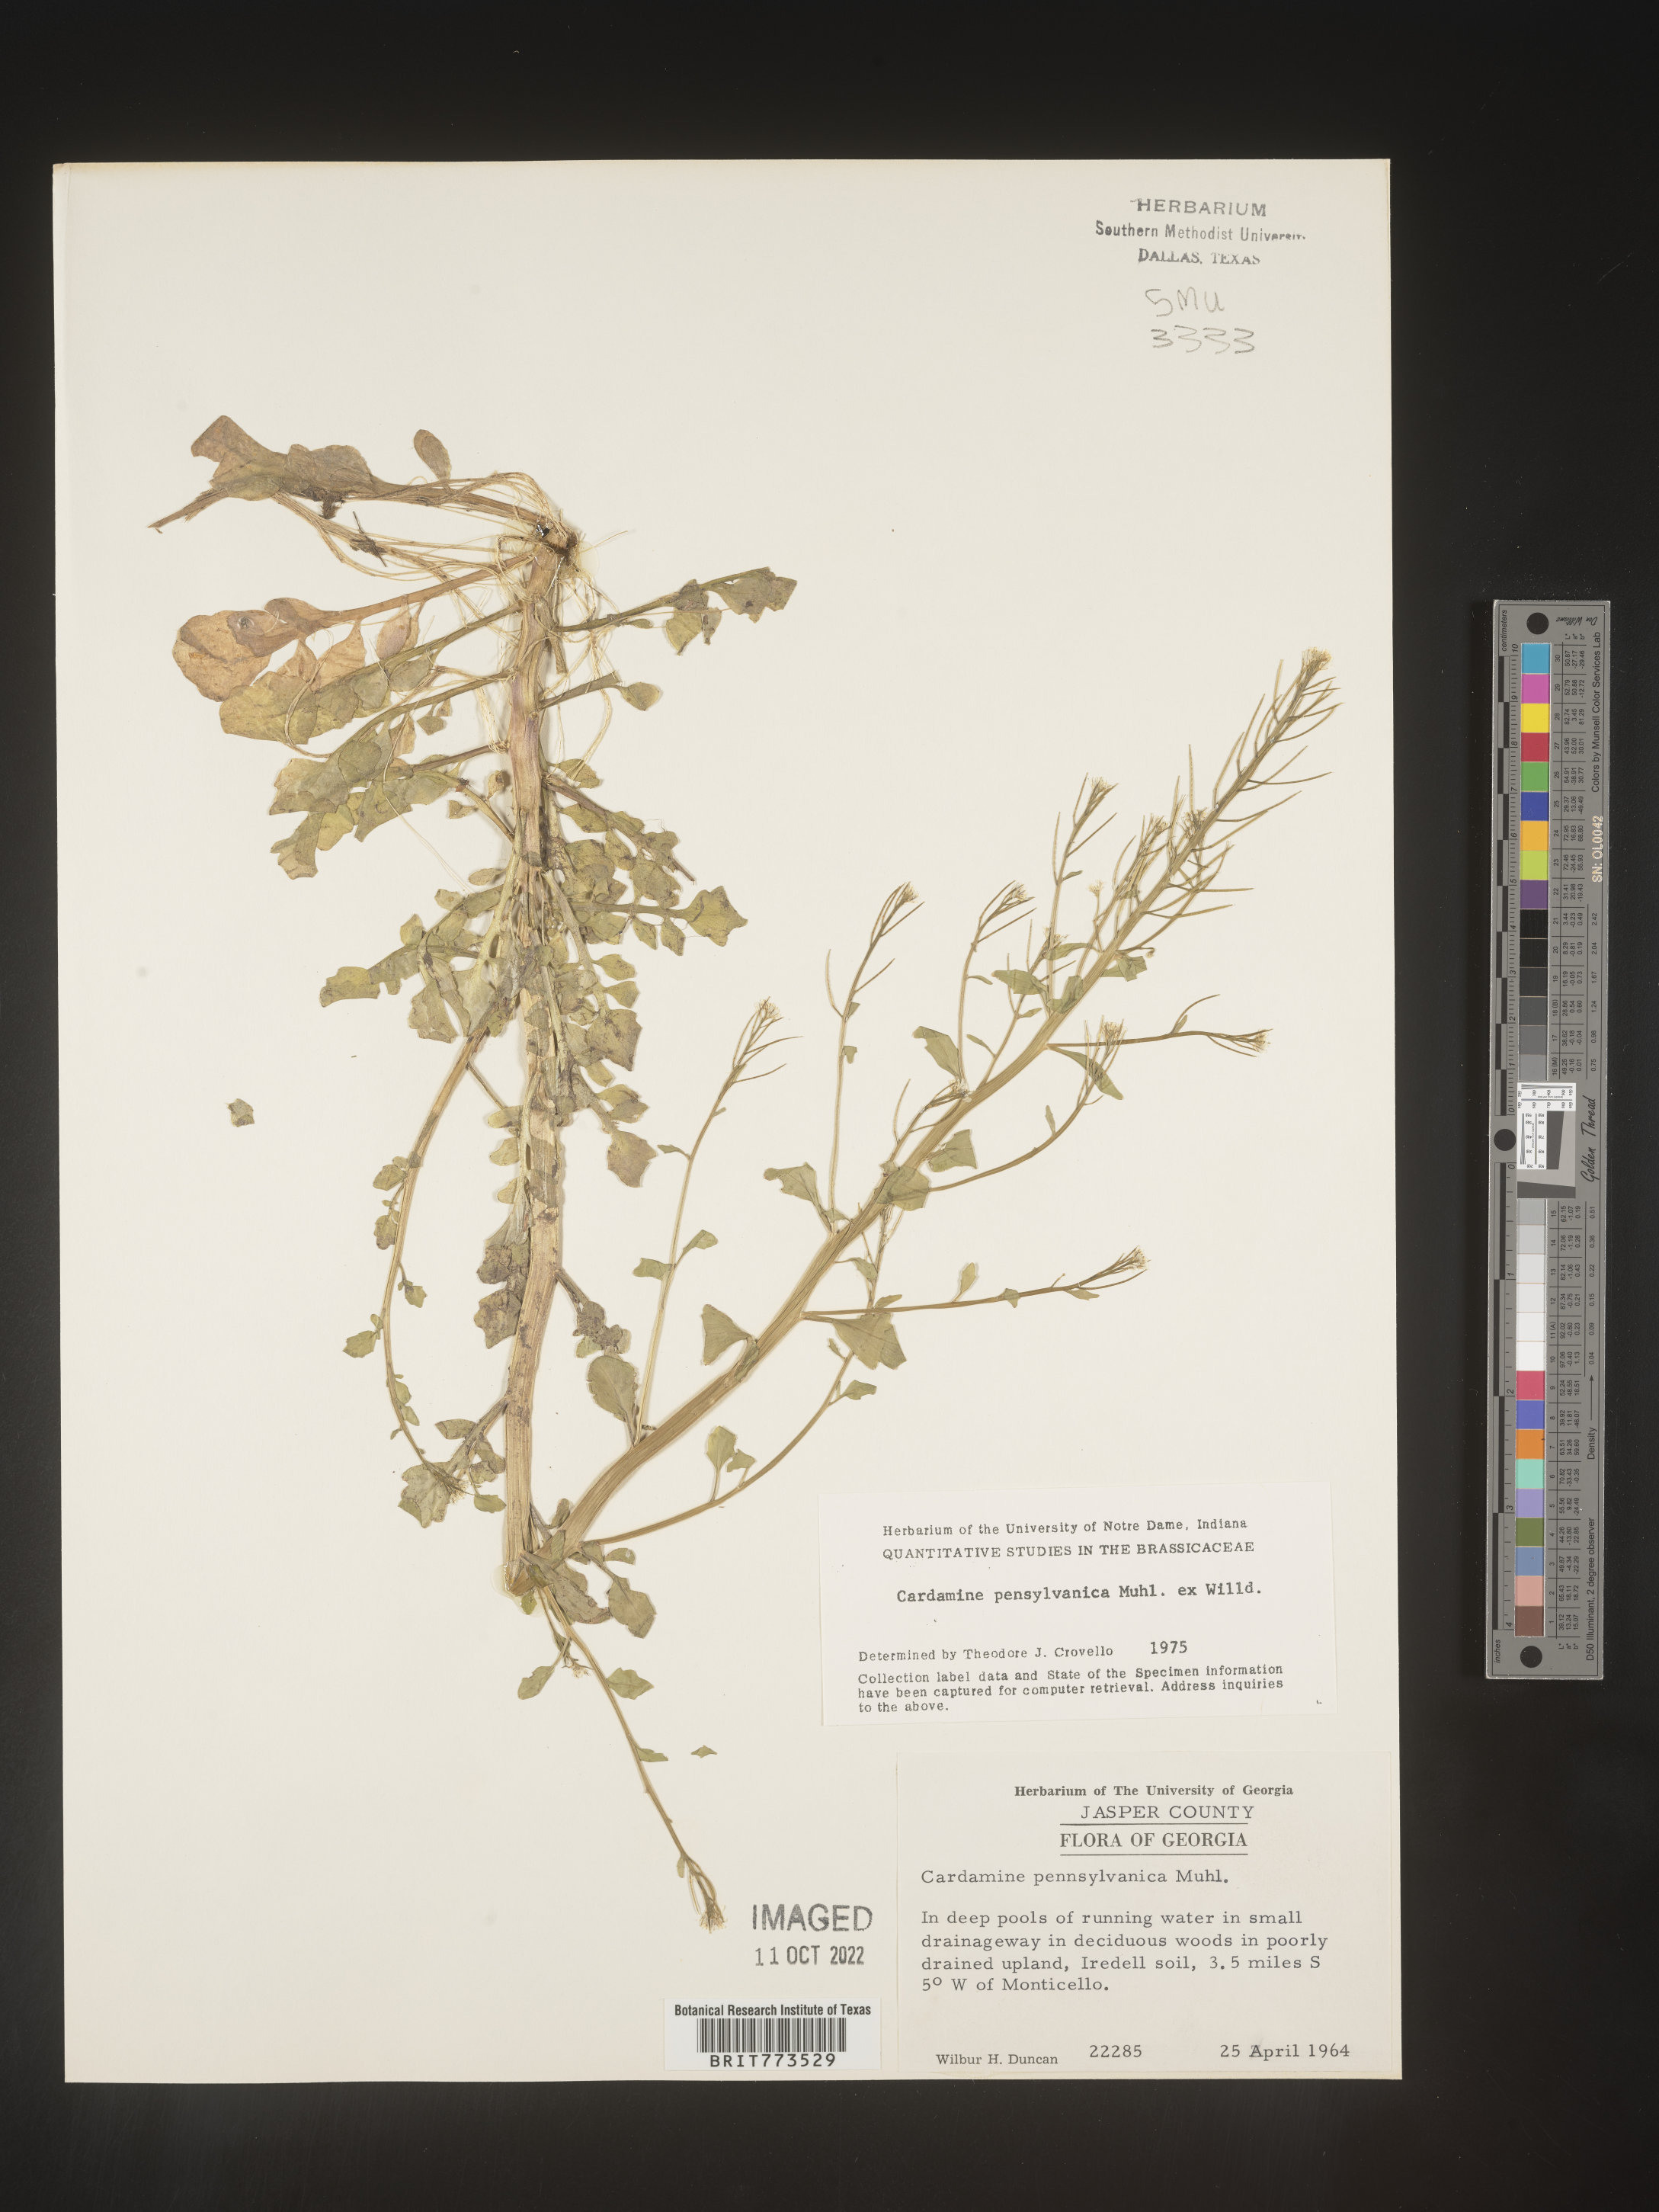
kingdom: Plantae
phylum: Tracheophyta
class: Magnoliopsida
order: Brassicales
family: Brassicaceae
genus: Cardamine
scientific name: Cardamine pensylvanica
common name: Pennsylvania bittercress
